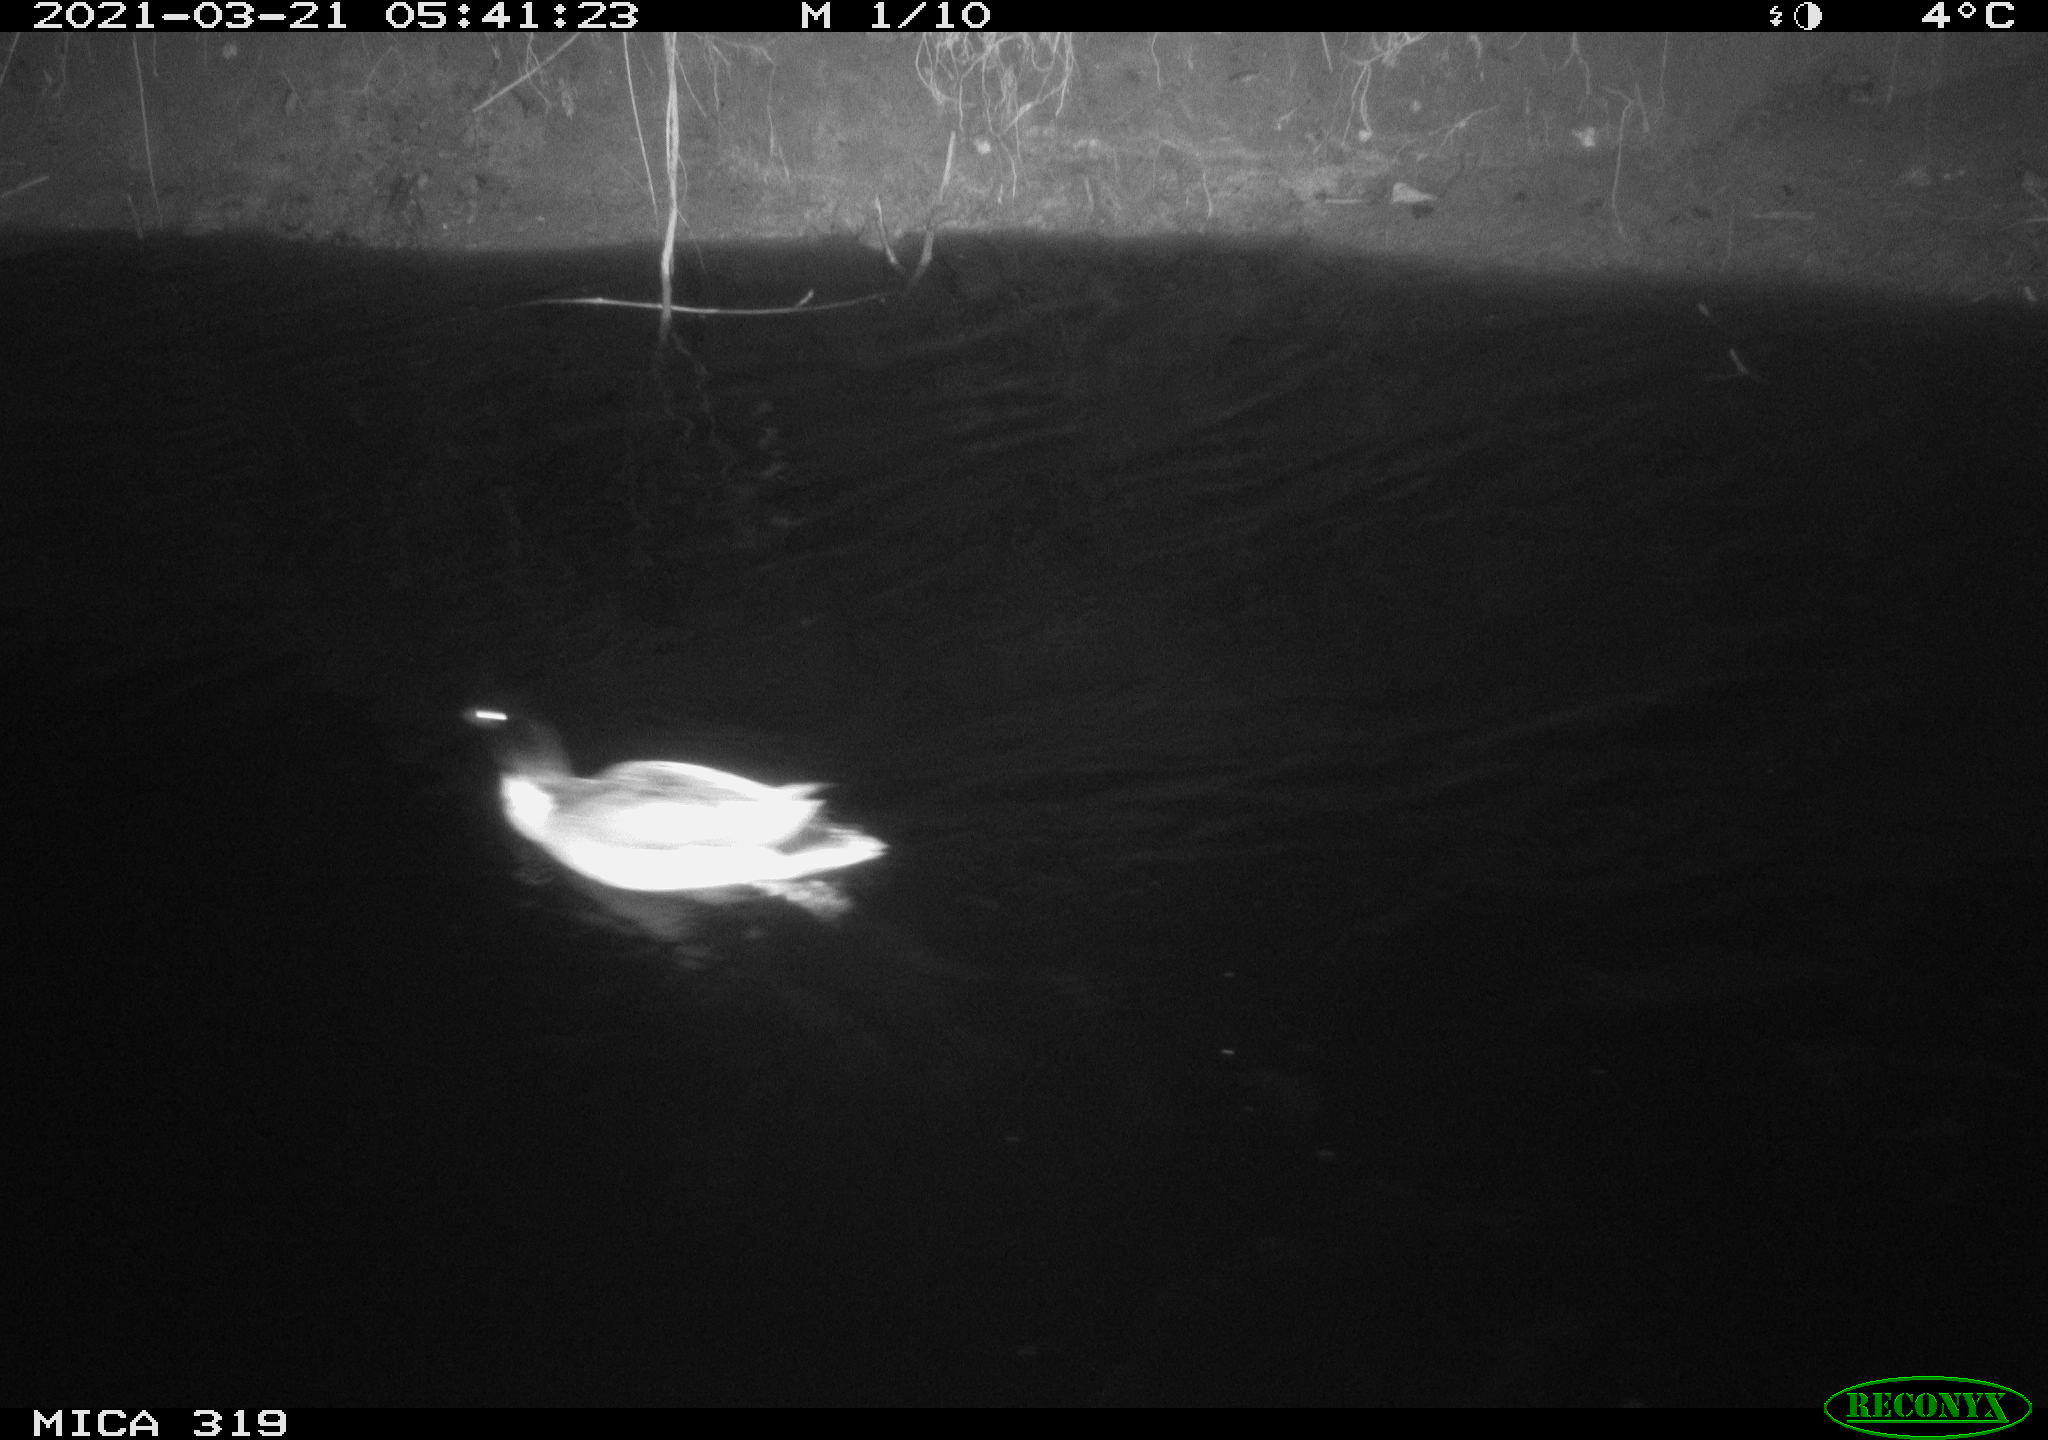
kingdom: Animalia
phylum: Chordata
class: Aves
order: Anseriformes
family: Anatidae
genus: Anas
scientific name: Anas platyrhynchos
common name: Mallard
